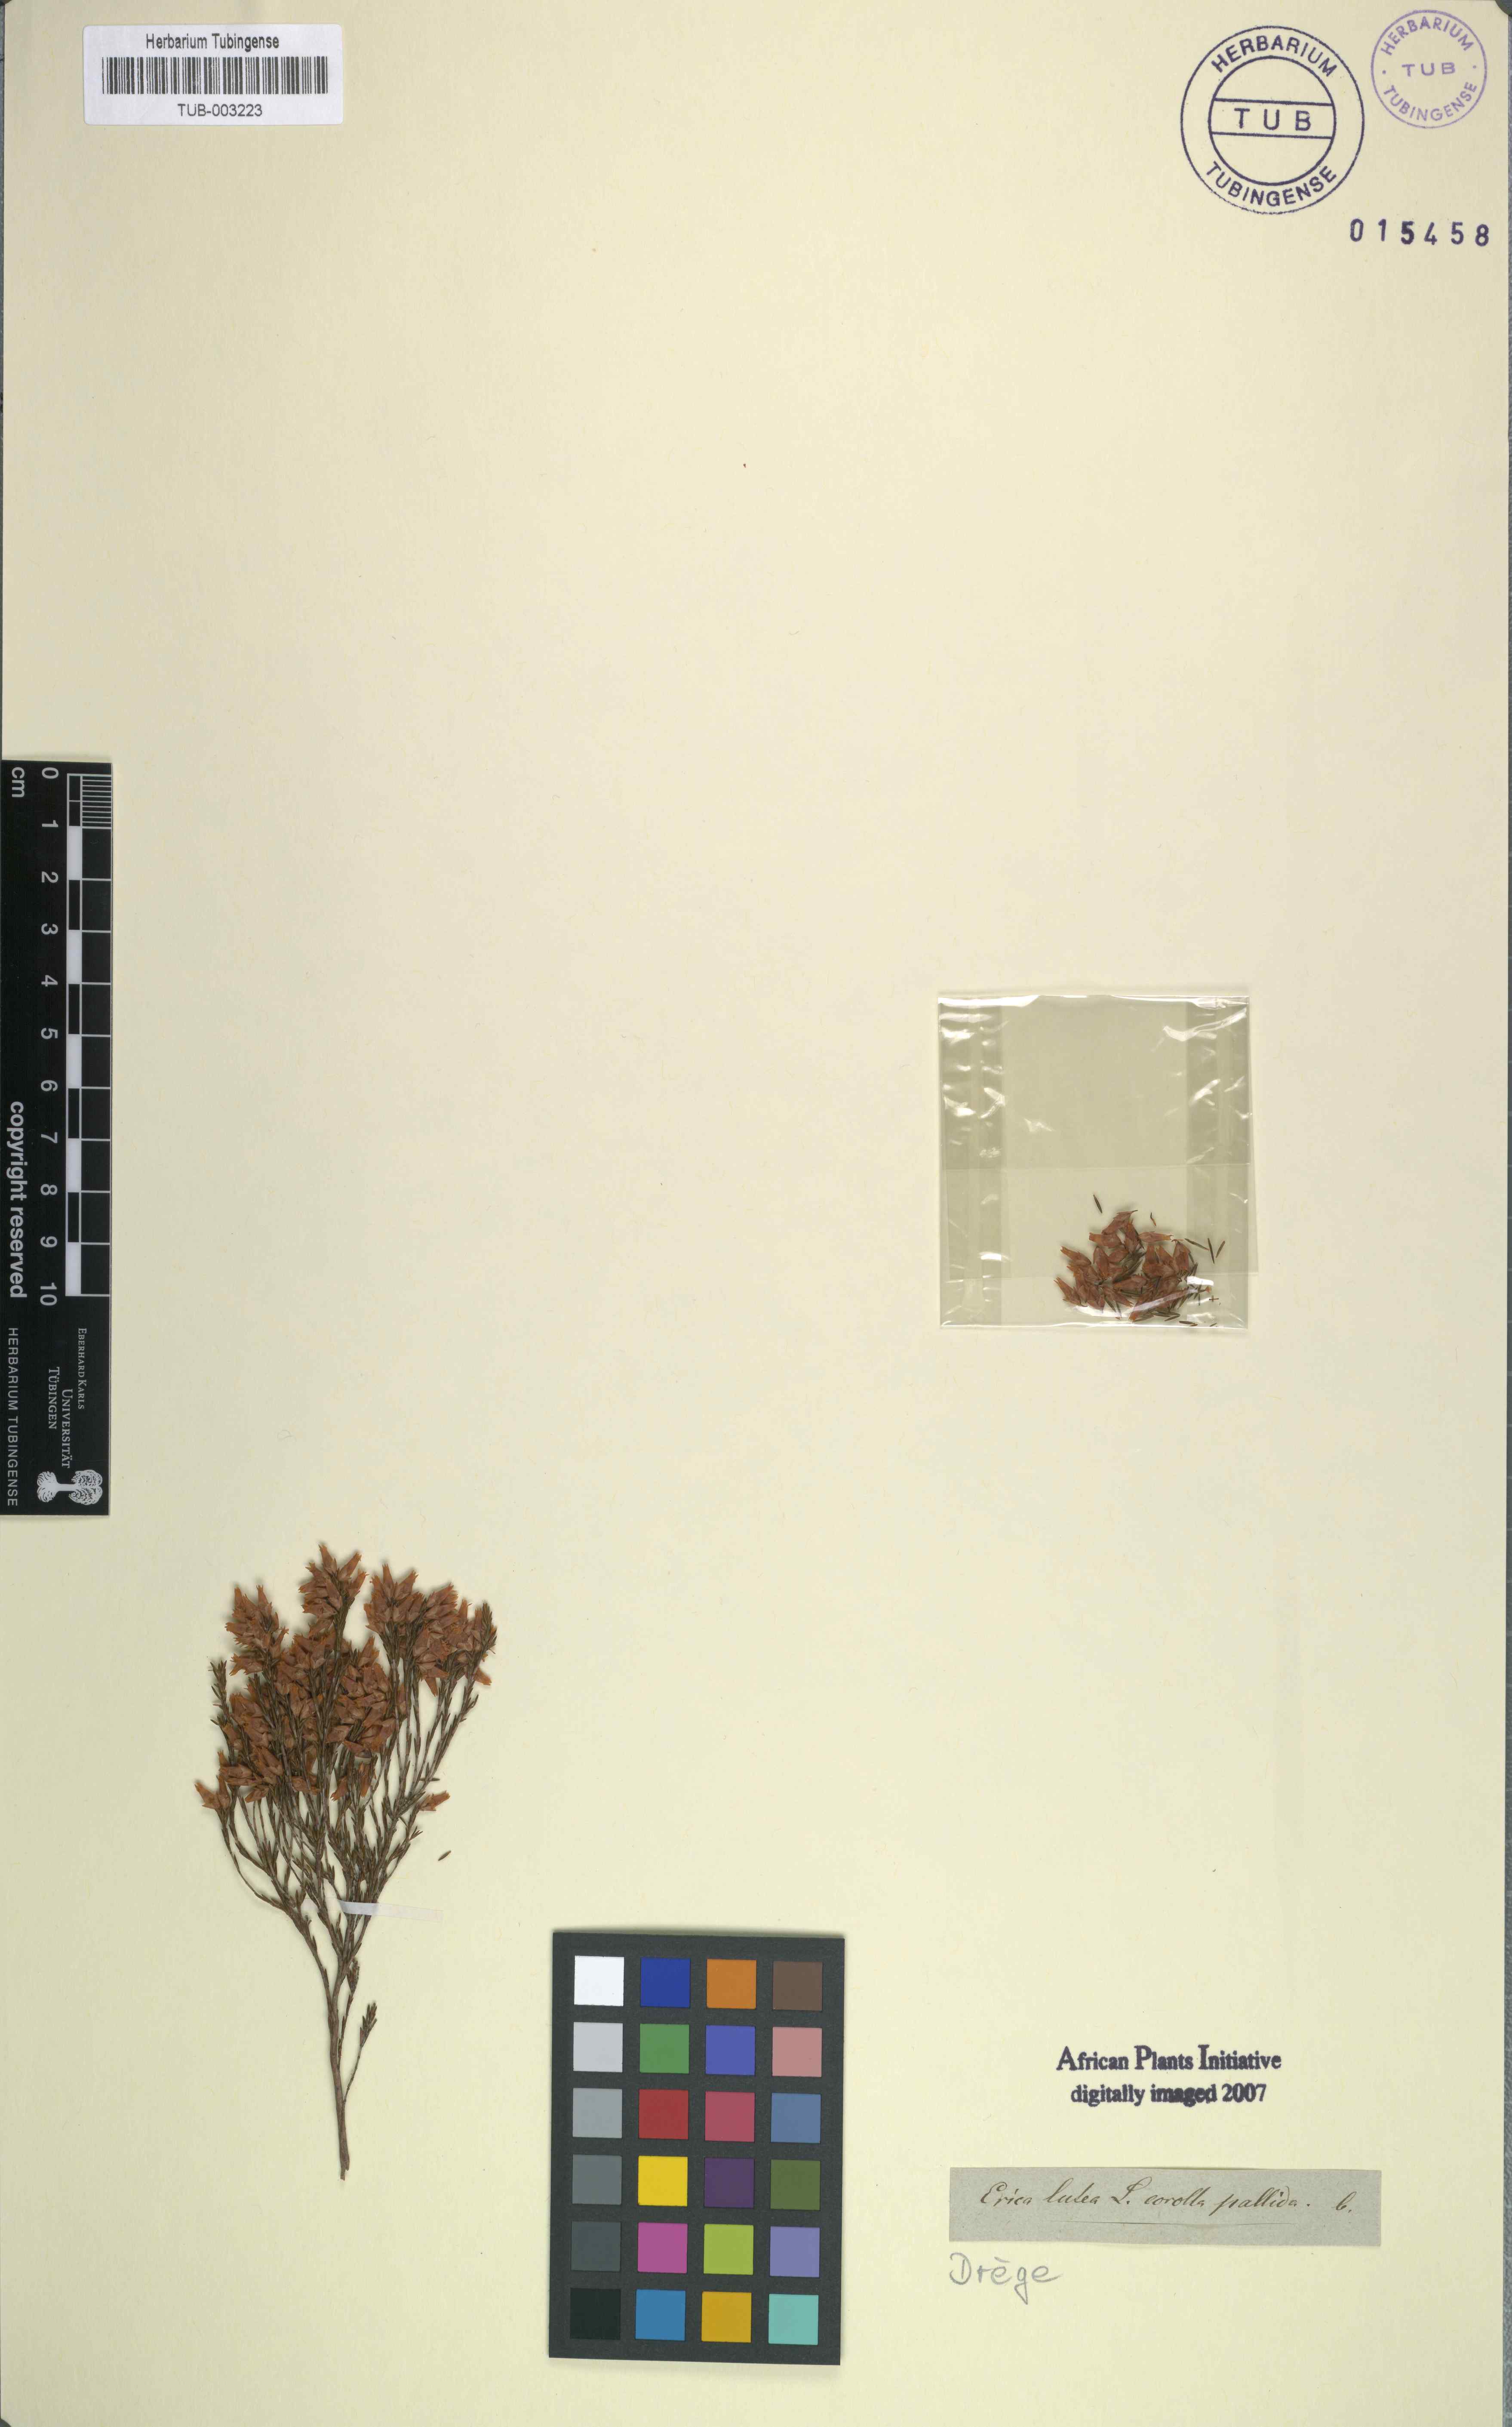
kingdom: Plantae
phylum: Tracheophyta
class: Magnoliopsida
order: Ericales
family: Ericaceae
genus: Erica
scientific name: Erica lutea
